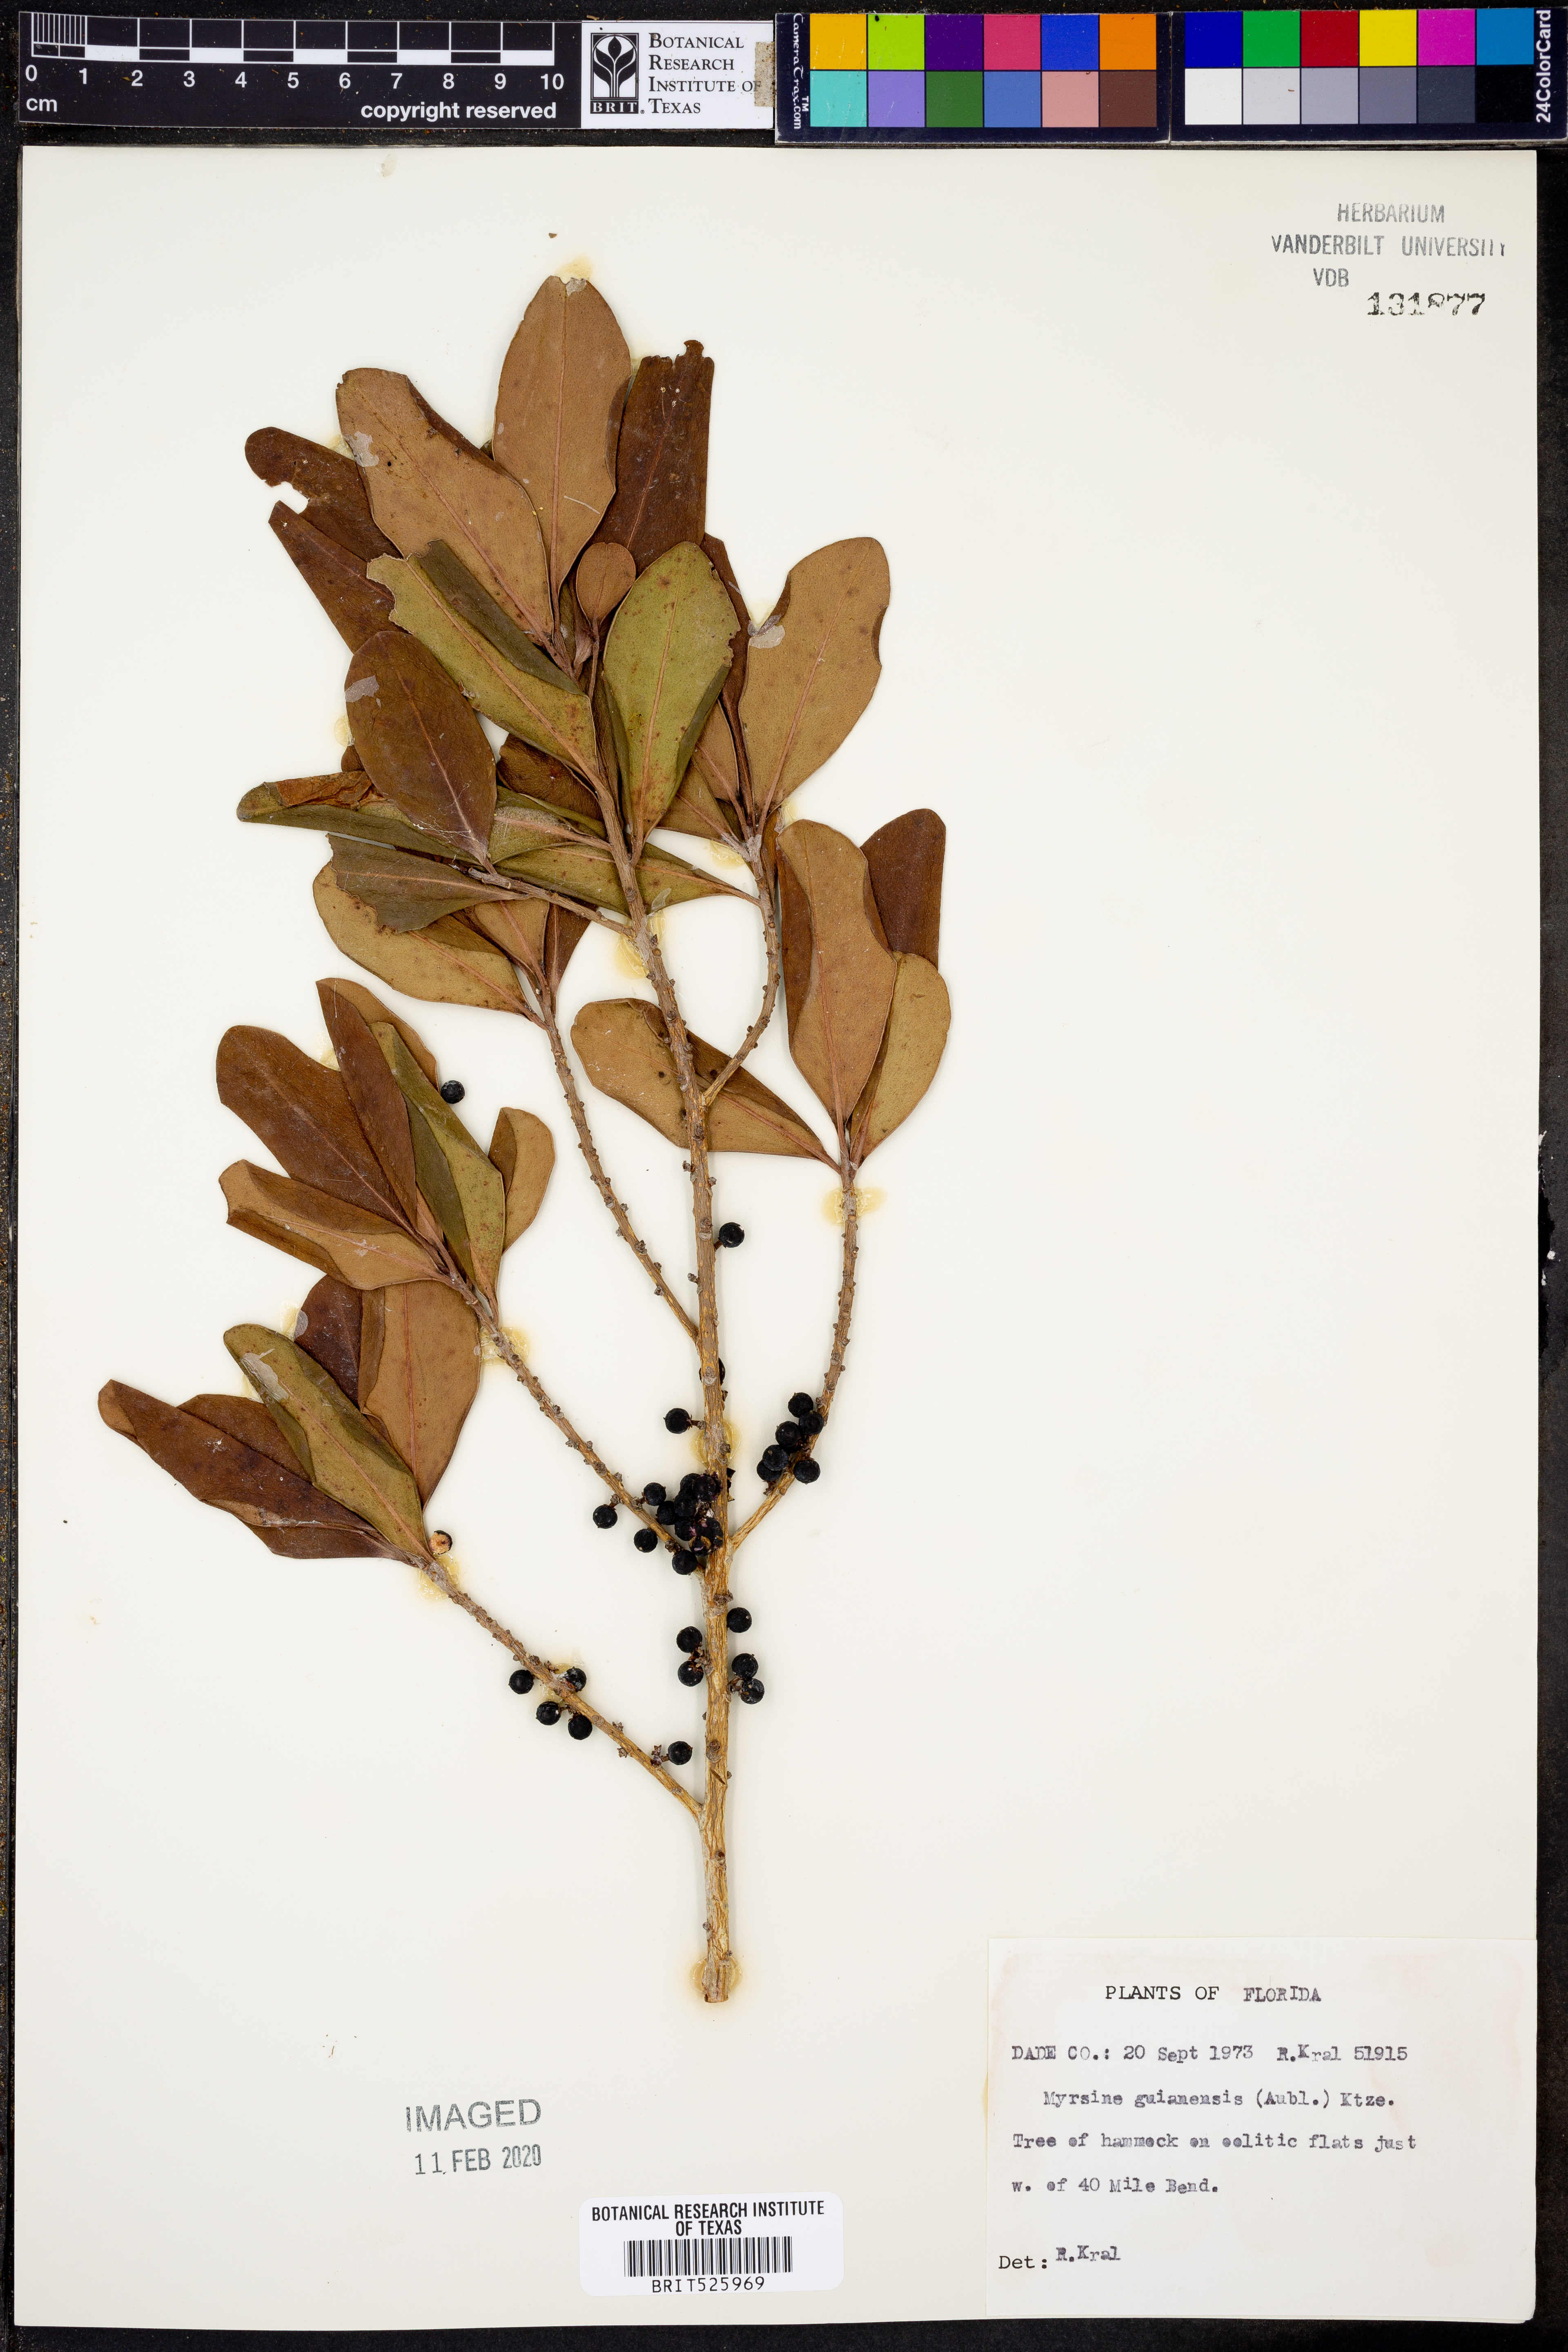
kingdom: Plantae
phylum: Tracheophyta
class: Magnoliopsida
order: Ericales
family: Primulaceae
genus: Myrsine
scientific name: Myrsine guianensis
